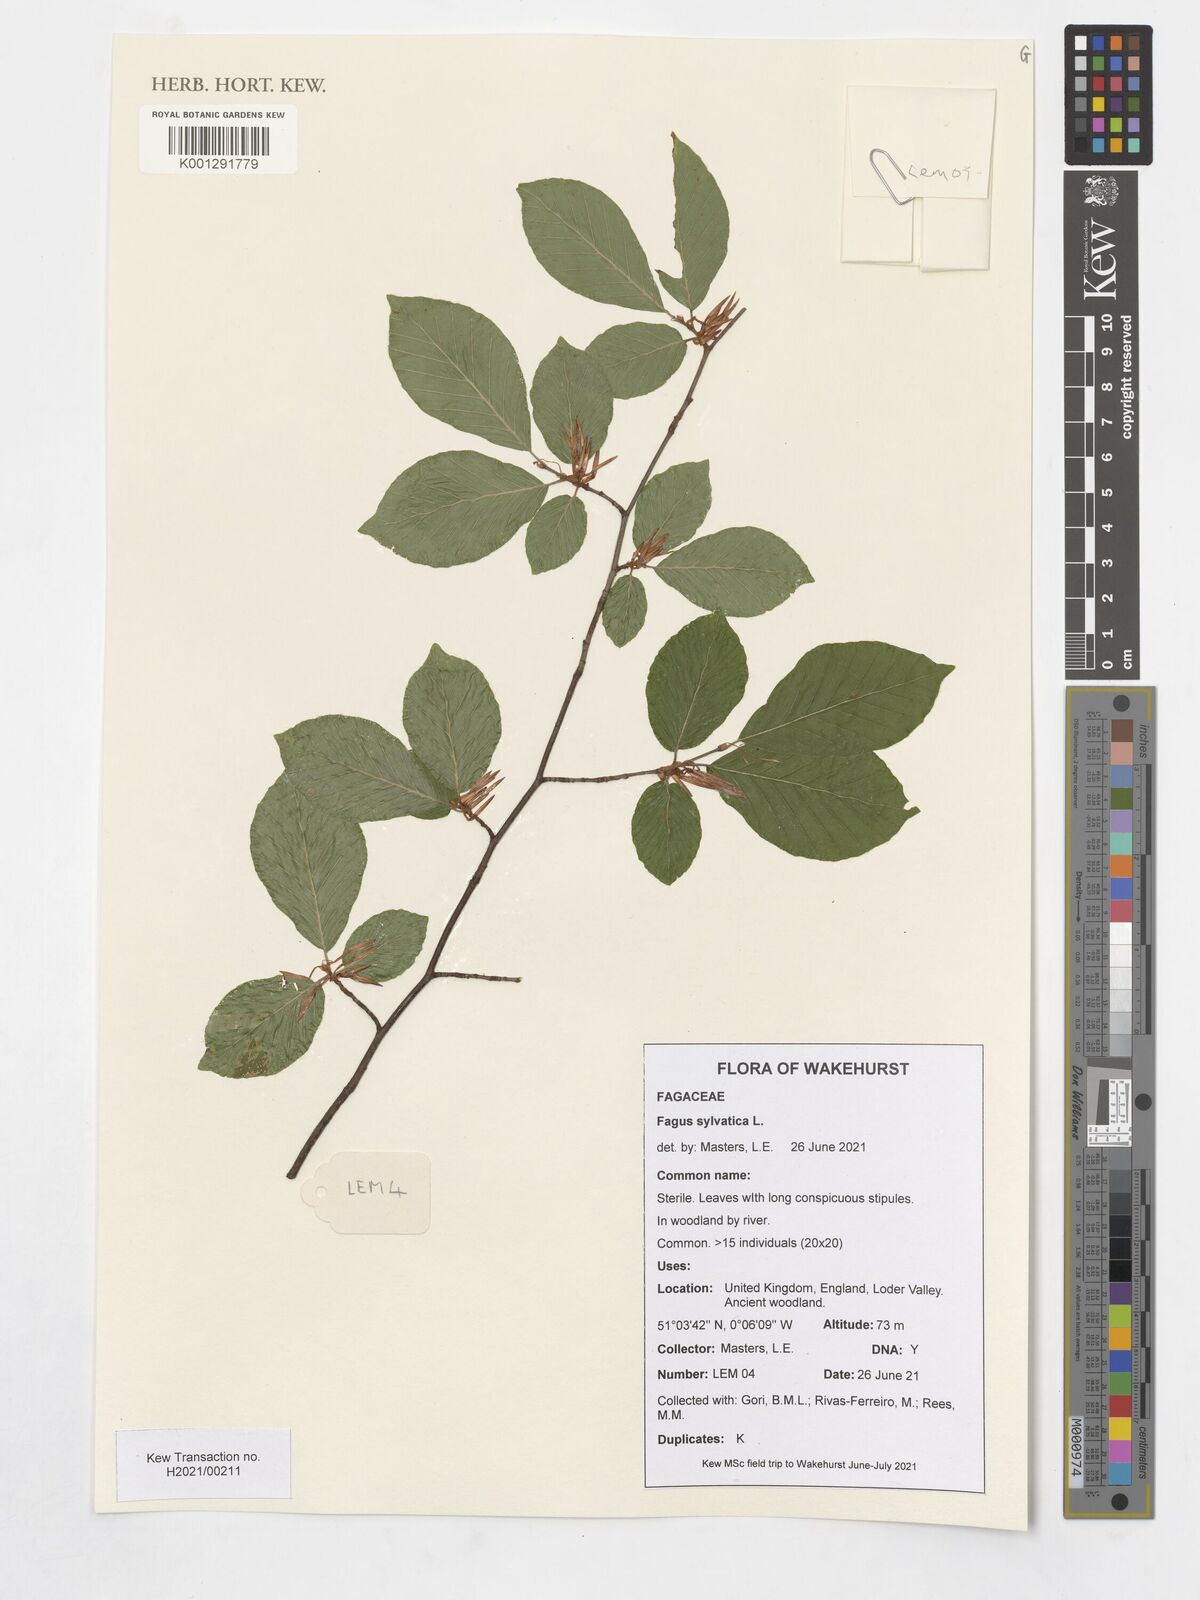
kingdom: Plantae
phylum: Tracheophyta
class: Magnoliopsida
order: Fagales
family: Fagaceae
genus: Fagus
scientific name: Fagus sylvatica
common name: Beech
